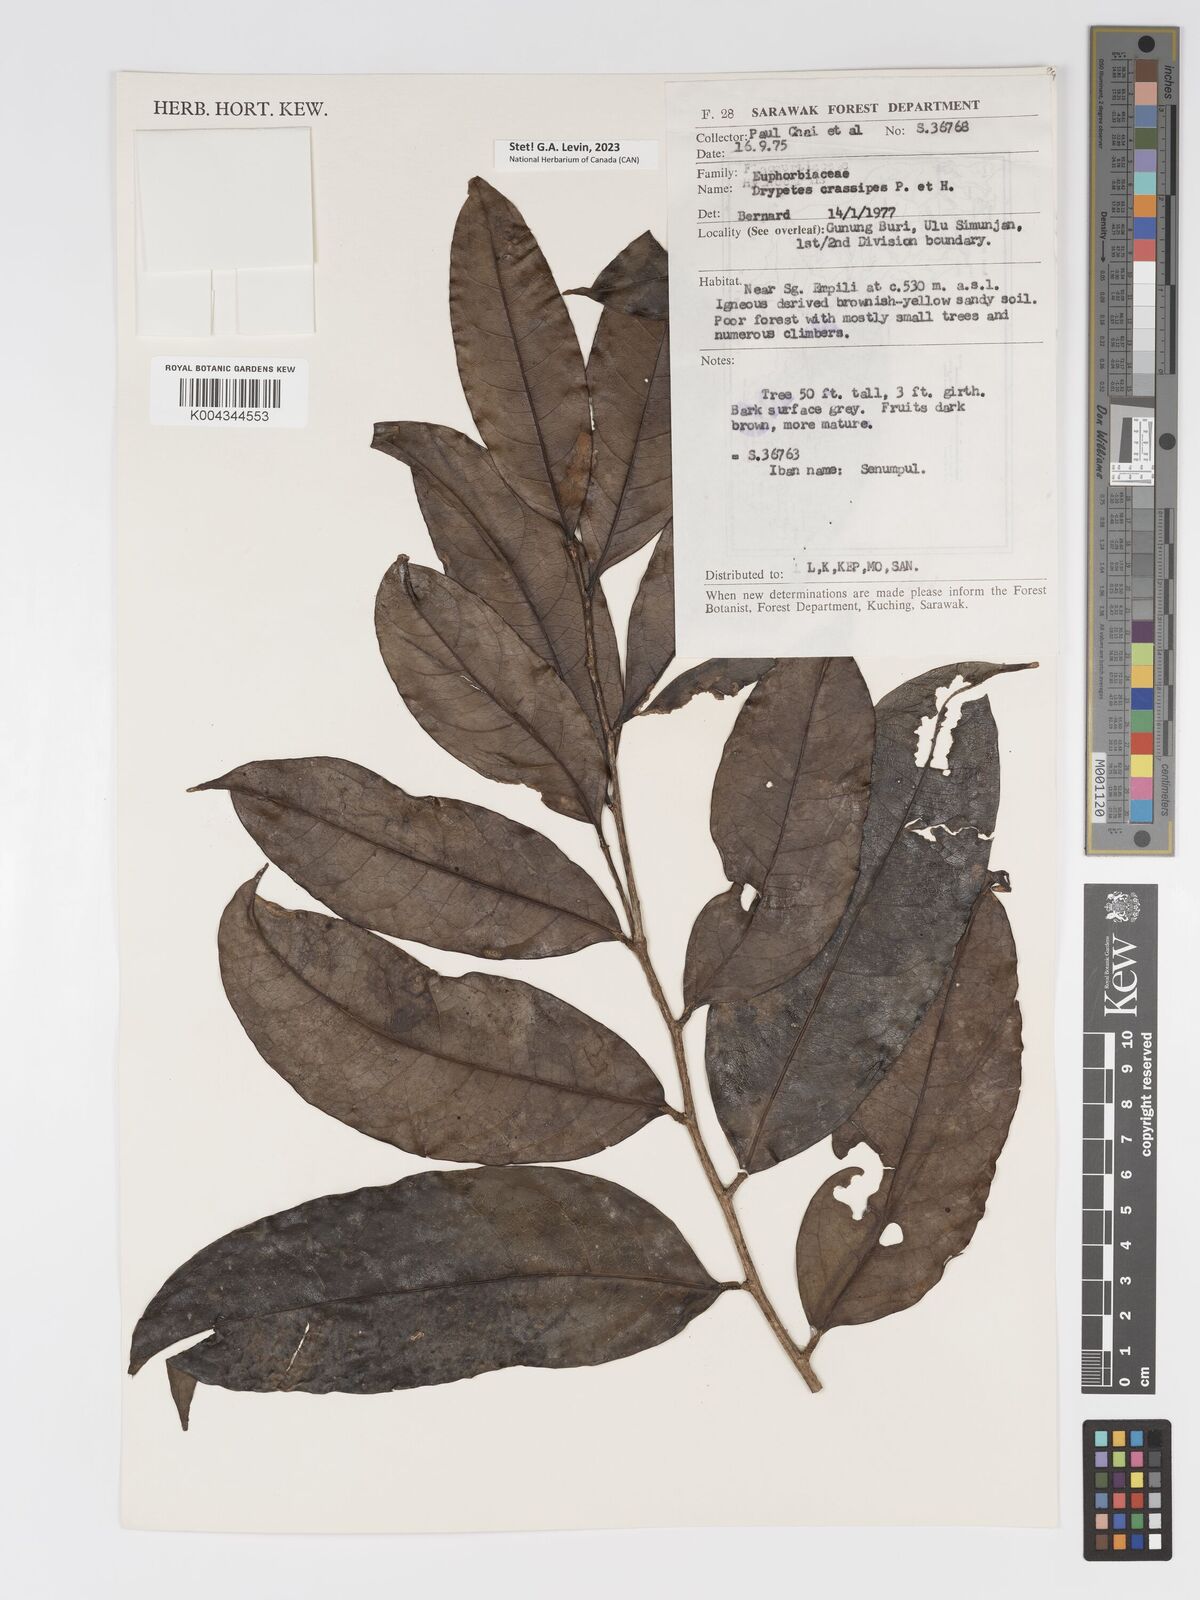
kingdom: Plantae
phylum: Tracheophyta
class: Magnoliopsida
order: Malpighiales
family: Putranjivaceae
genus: Drypetes
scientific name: Drypetes crassipes
